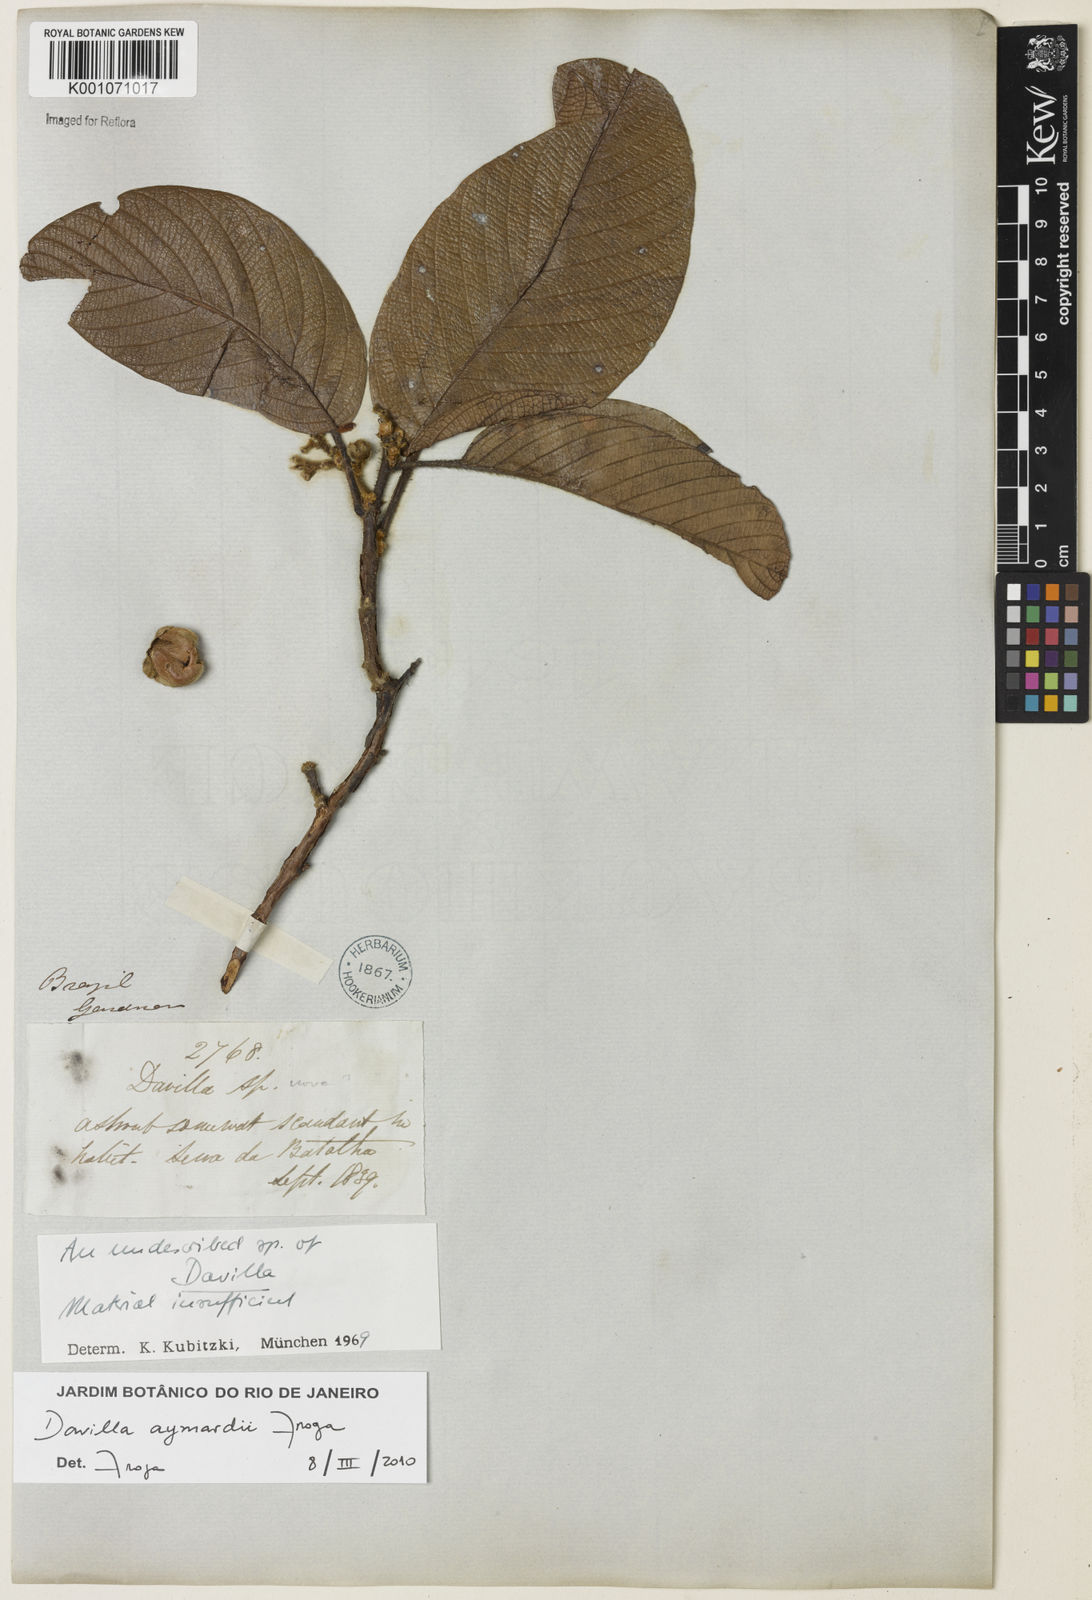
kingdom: Plantae
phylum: Tracheophyta
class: Magnoliopsida
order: Dilleniales
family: Dilleniaceae
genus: Davilla
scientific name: Davilla aymardii
